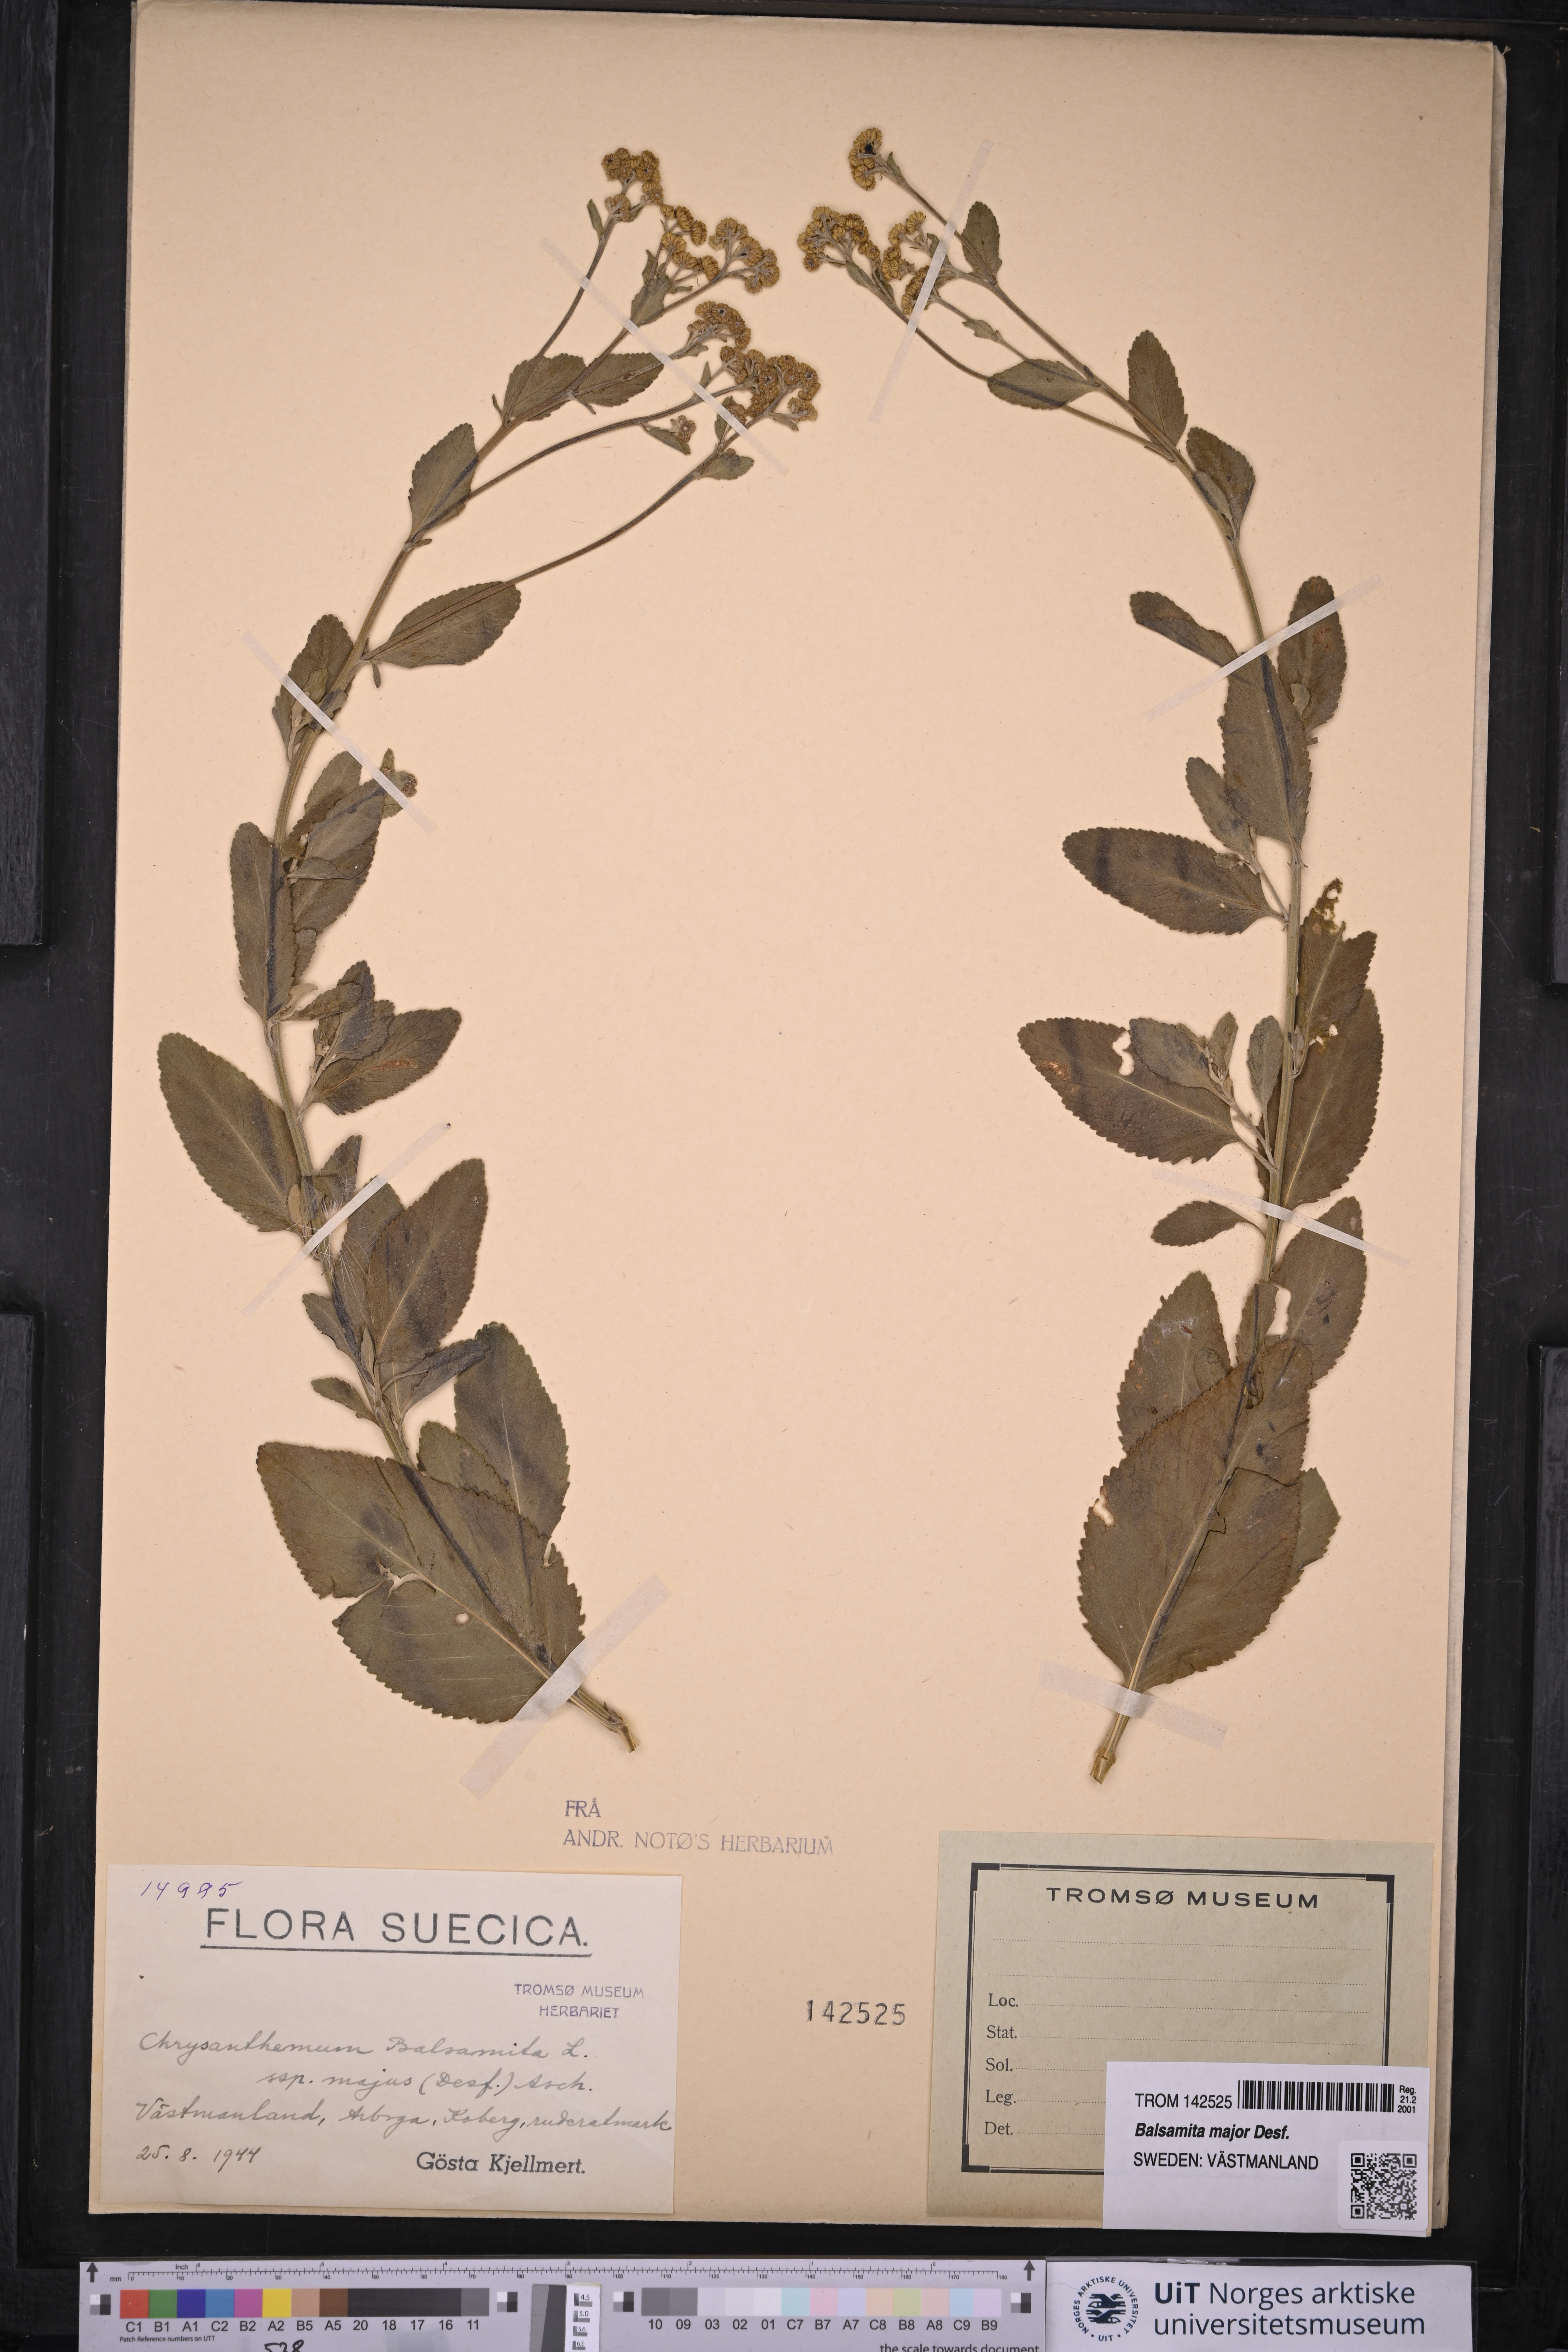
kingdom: Plantae
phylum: Tracheophyta
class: Magnoliopsida
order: Asterales
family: Asteraceae
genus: Tanacetum
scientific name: Tanacetum balsamita
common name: Costmary
